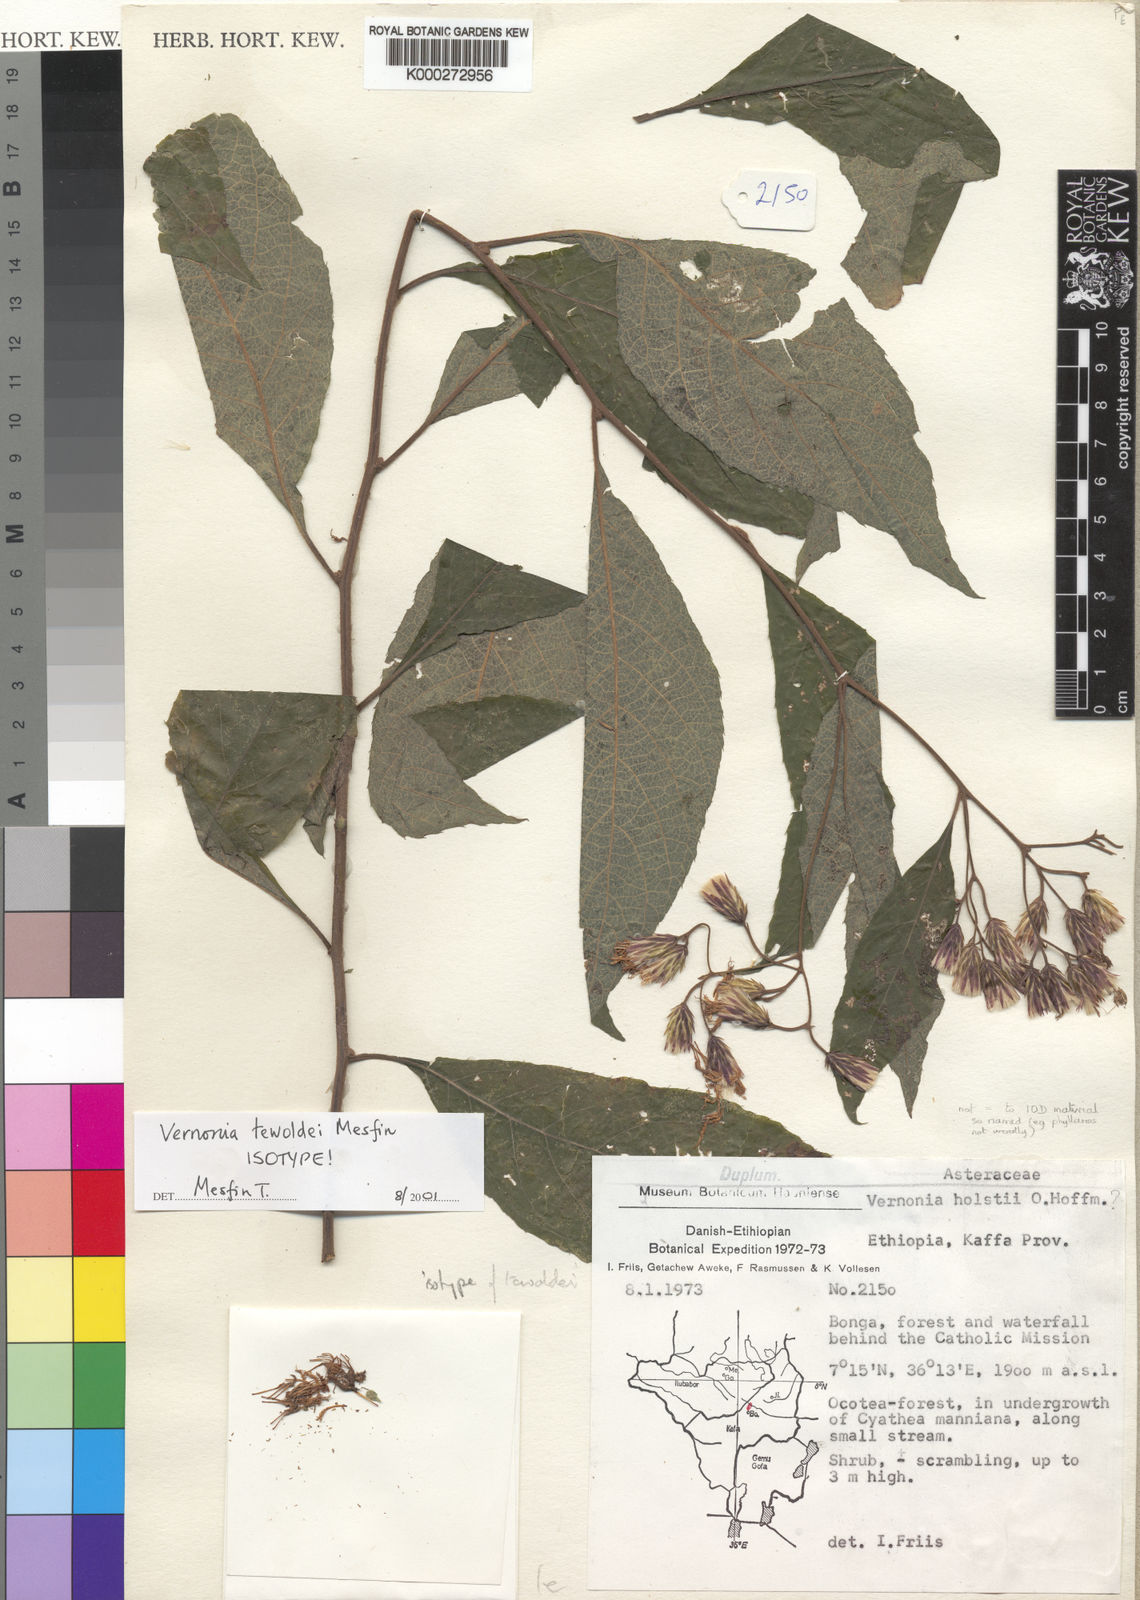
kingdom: Plantae
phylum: Tracheophyta
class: Magnoliopsida
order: Asterales
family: Asteraceae
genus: Vernonia
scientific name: Vernonia holstii
